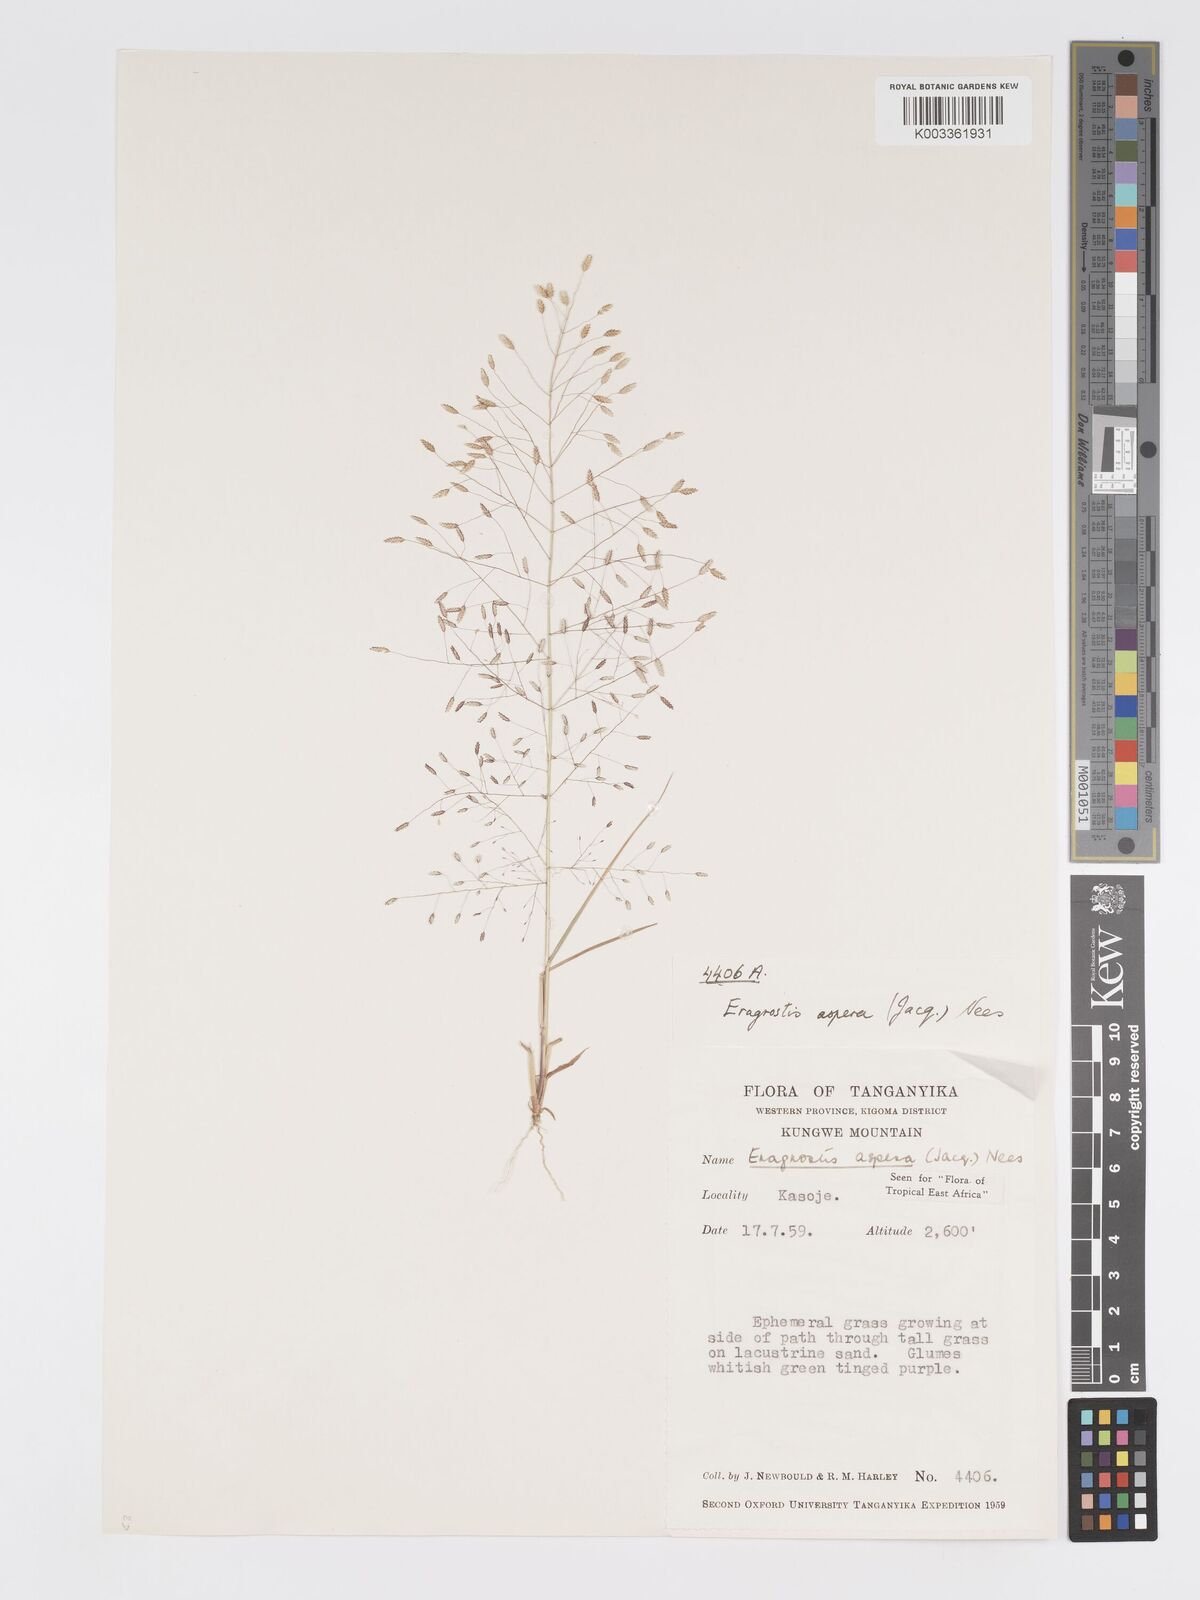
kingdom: Plantae
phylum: Tracheophyta
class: Liliopsida
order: Poales
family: Poaceae
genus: Eragrostis
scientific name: Eragrostis aspera
